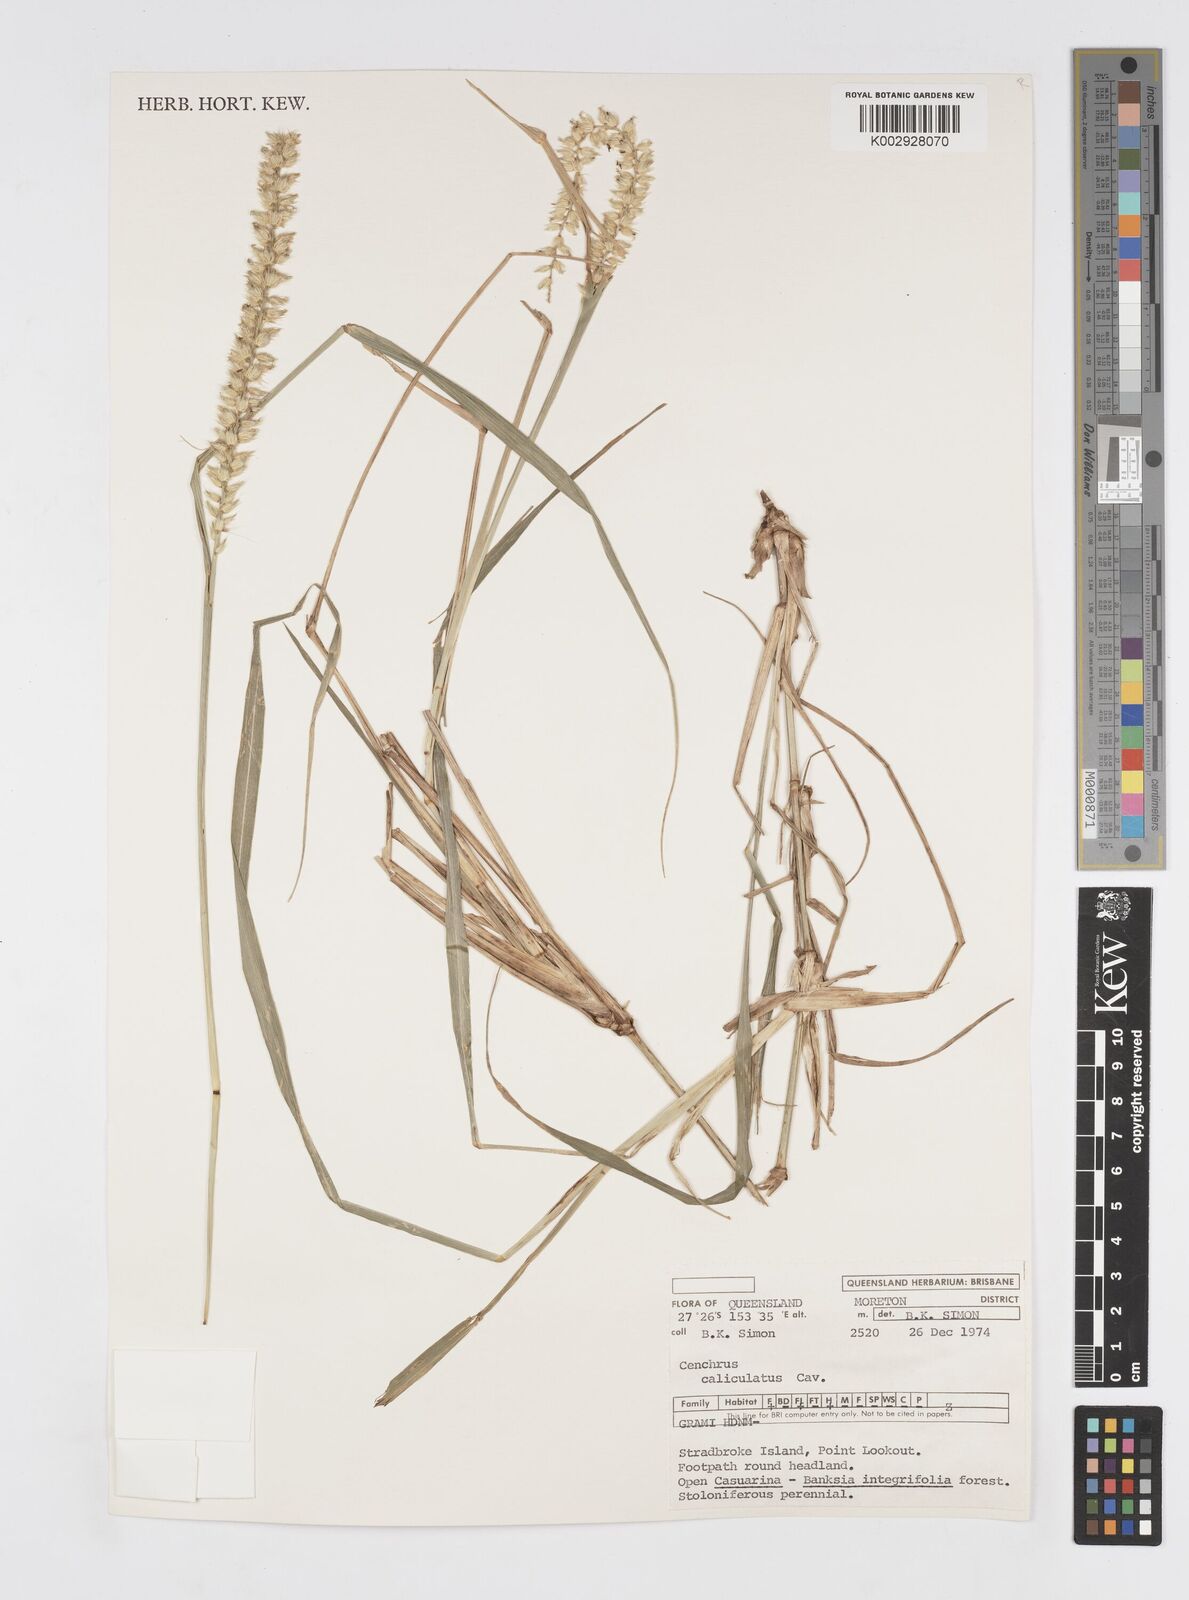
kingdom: Plantae
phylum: Tracheophyta
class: Liliopsida
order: Poales
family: Poaceae
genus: Cenchrus
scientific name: Cenchrus caliculatus
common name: Large bur grass
